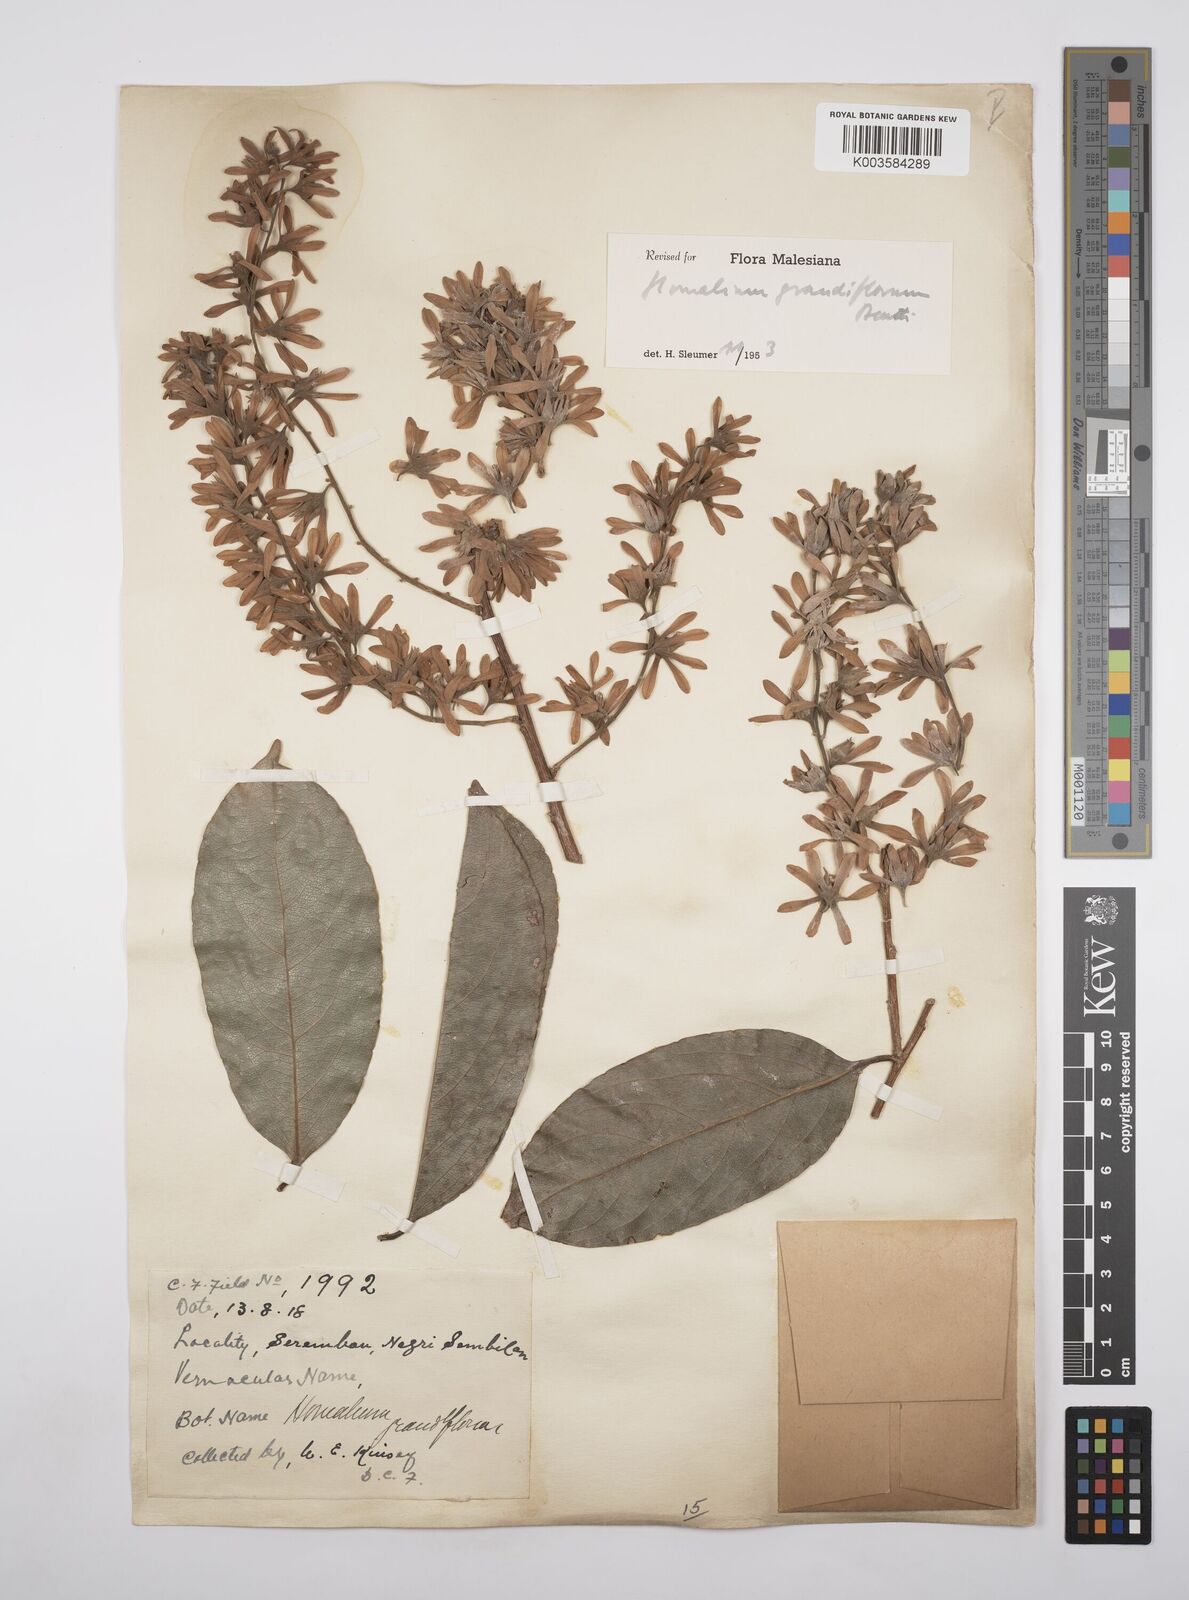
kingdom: Plantae
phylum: Tracheophyta
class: Magnoliopsida
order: Malpighiales
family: Salicaceae
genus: Homalium
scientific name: Homalium grandiflorum
